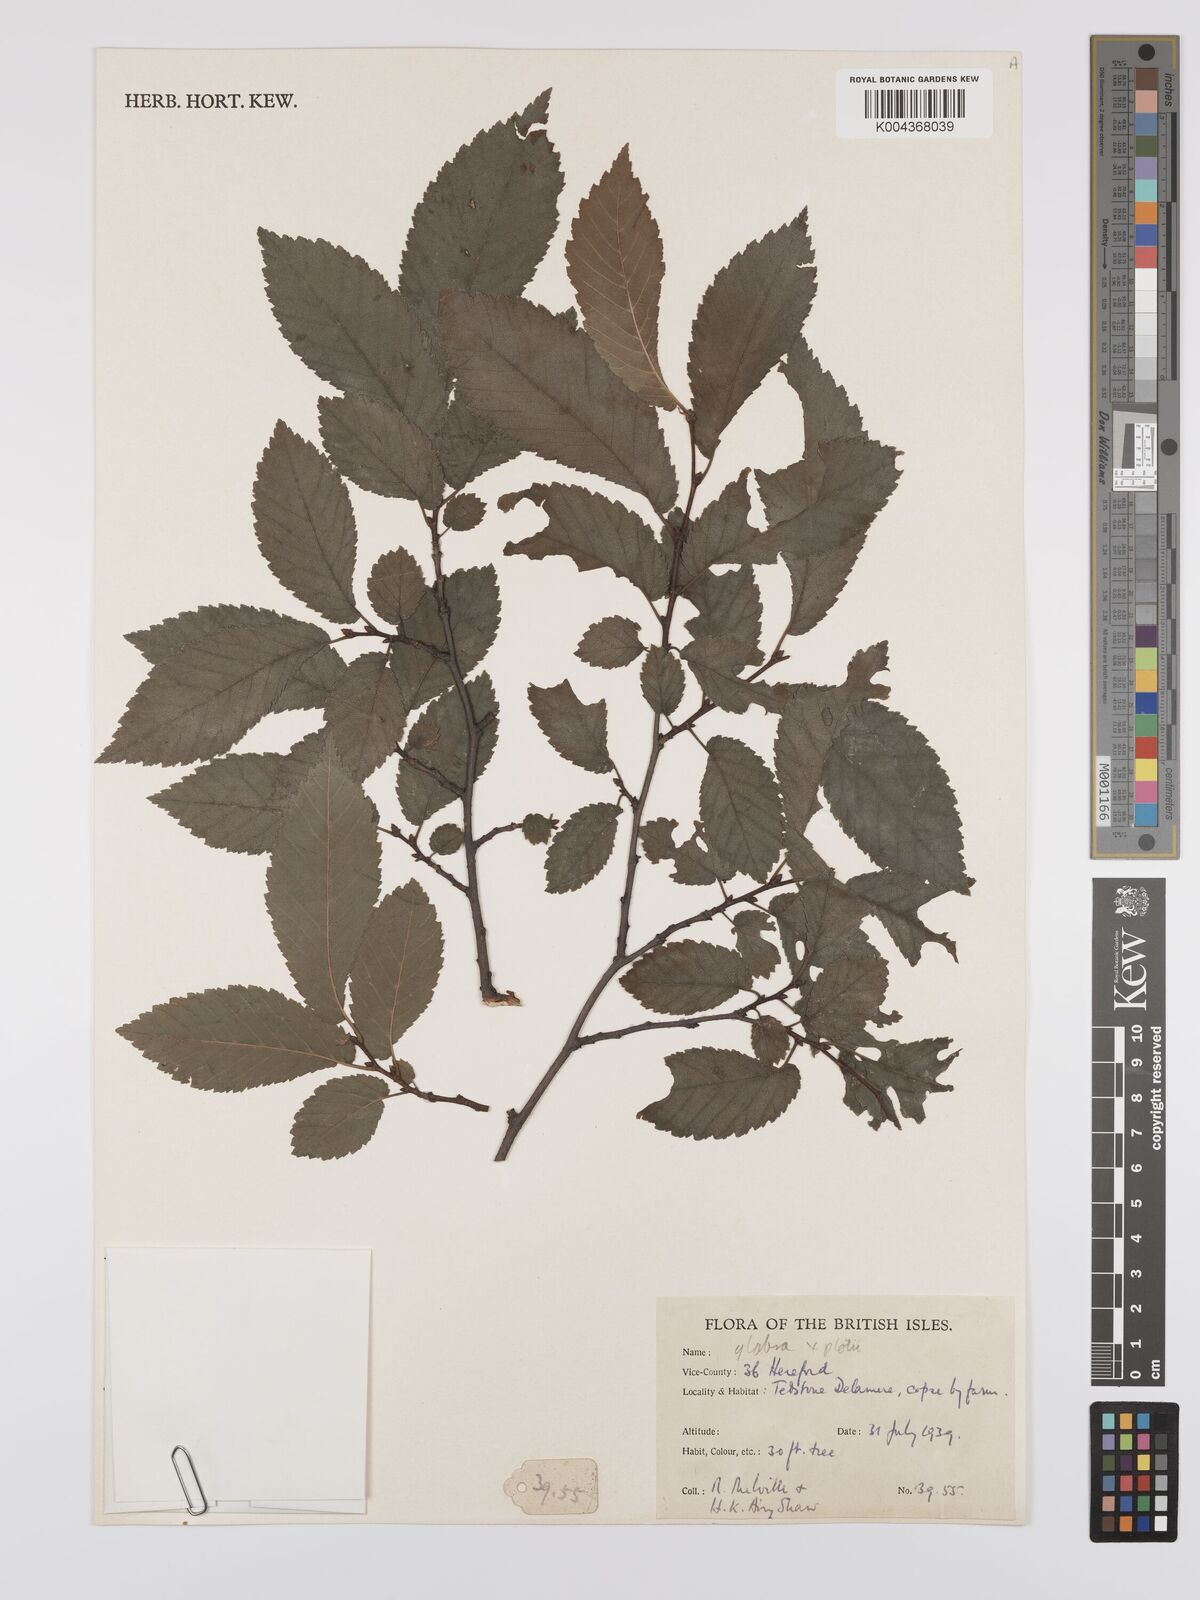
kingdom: Plantae
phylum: Tracheophyta
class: Magnoliopsida
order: Rosales
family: Ulmaceae
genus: Ulmus
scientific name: Ulmus
